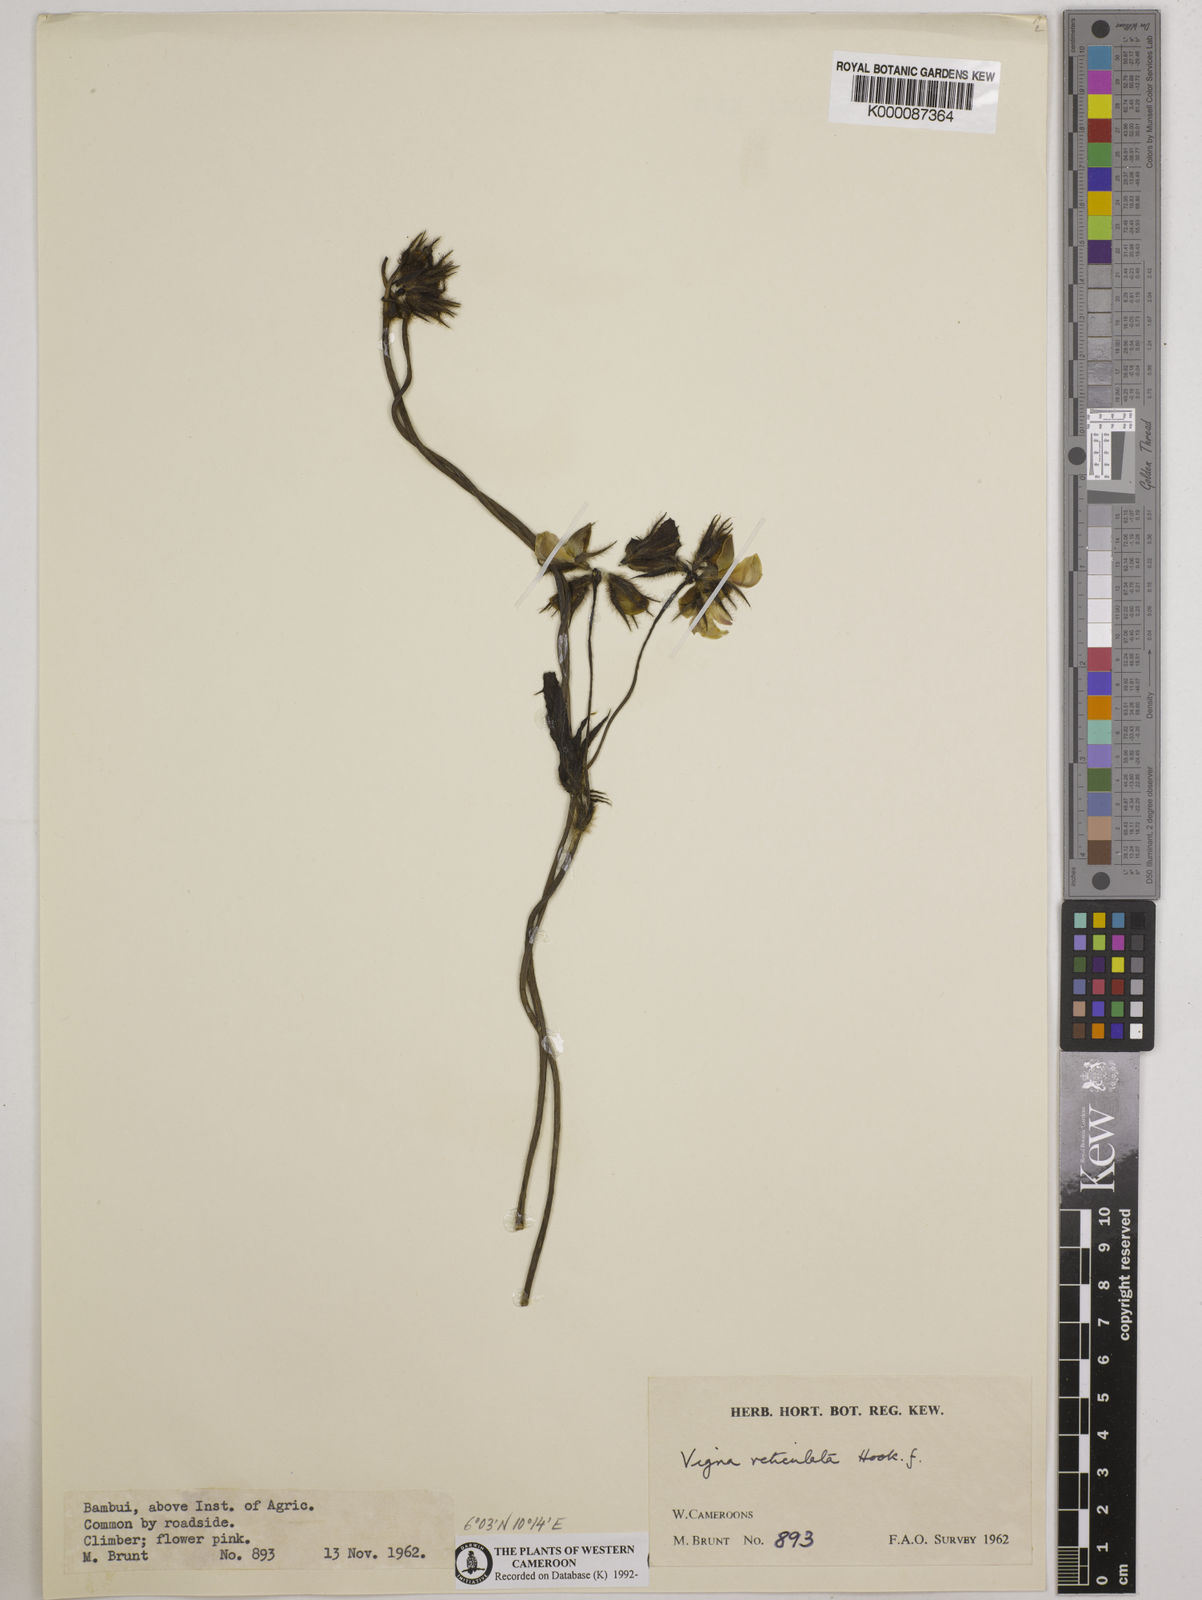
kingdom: Plantae
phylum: Tracheophyta
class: Magnoliopsida
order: Fabales
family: Fabaceae
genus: Vigna
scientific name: Vigna reticulata
